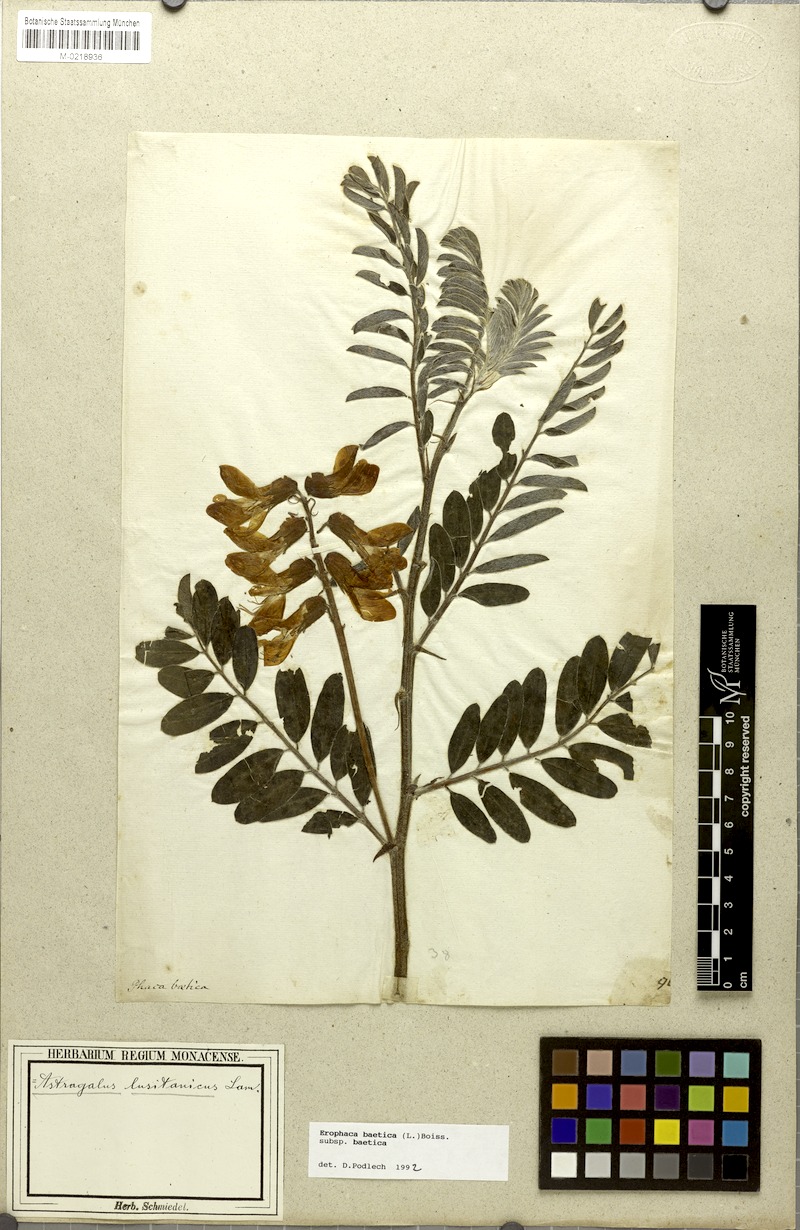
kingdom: Plantae
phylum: Tracheophyta
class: Magnoliopsida
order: Fabales
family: Fabaceae
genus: Erophaca
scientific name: Erophaca baetica
